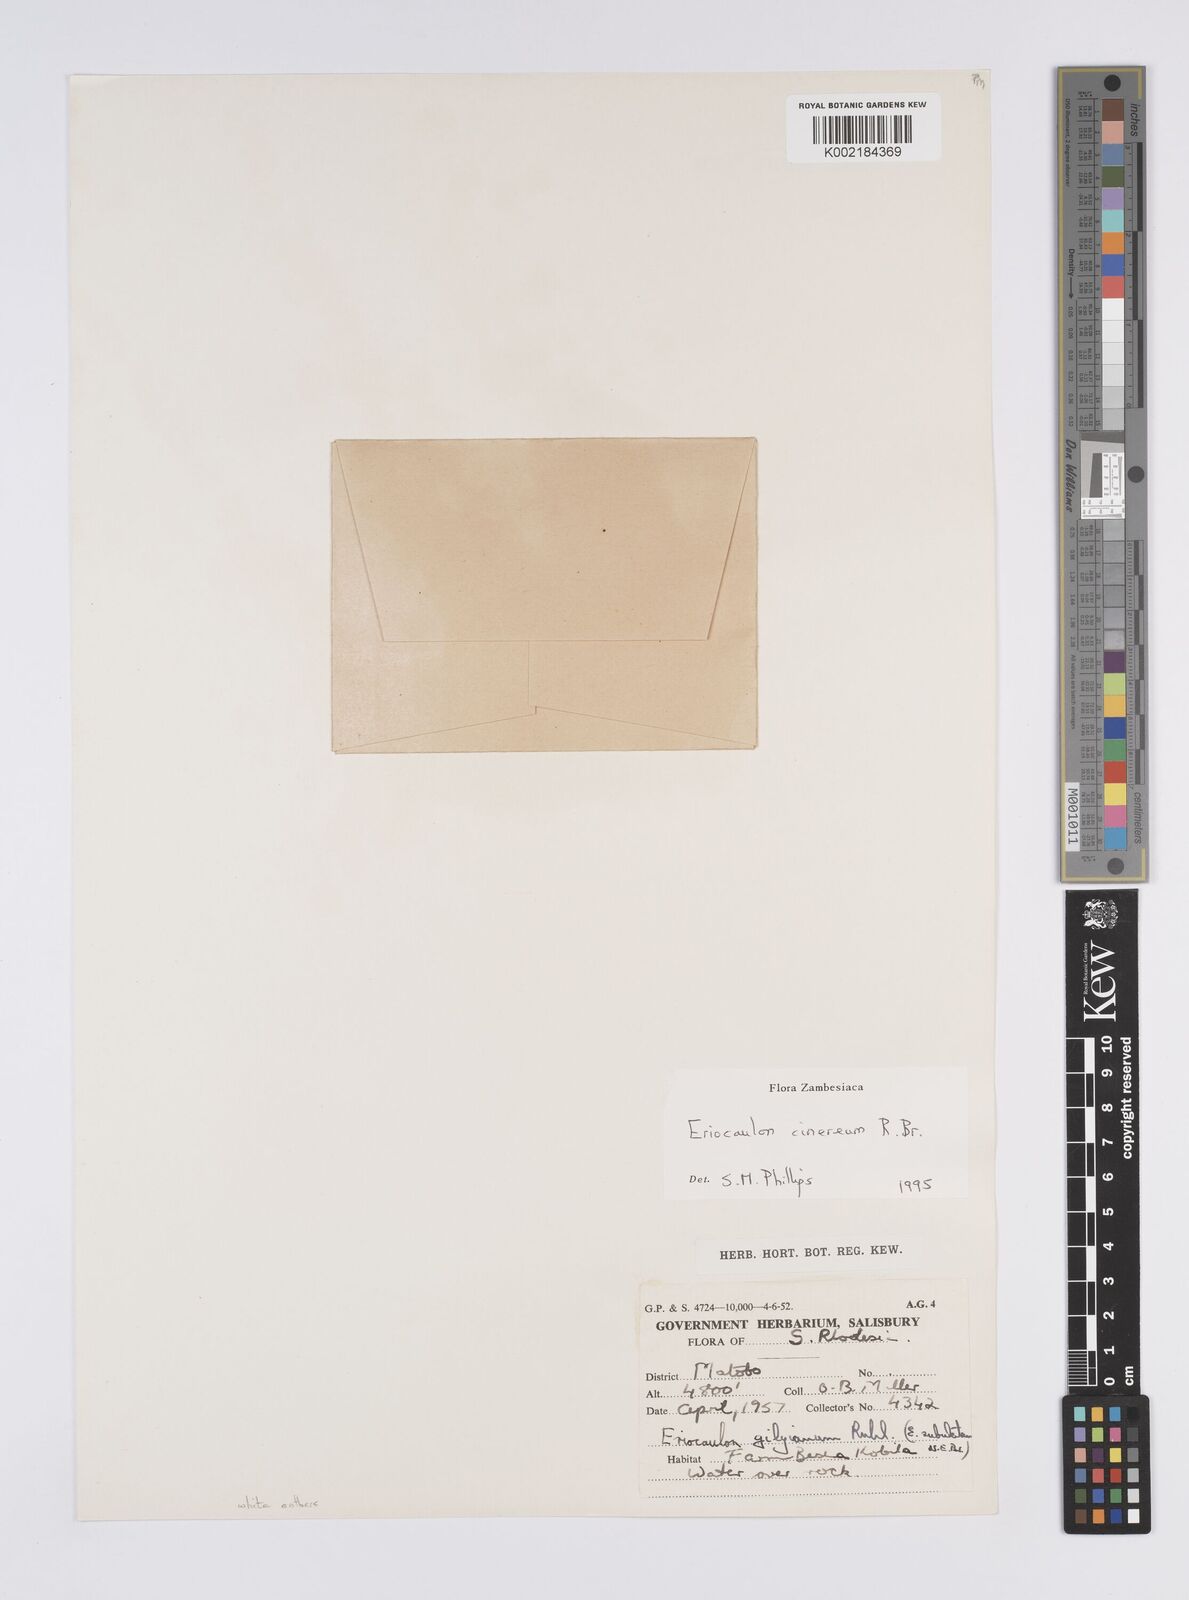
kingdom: Plantae
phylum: Tracheophyta
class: Liliopsida
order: Poales
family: Eriocaulaceae
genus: Eriocaulon
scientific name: Eriocaulon cinereum
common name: Ashy pipewort
